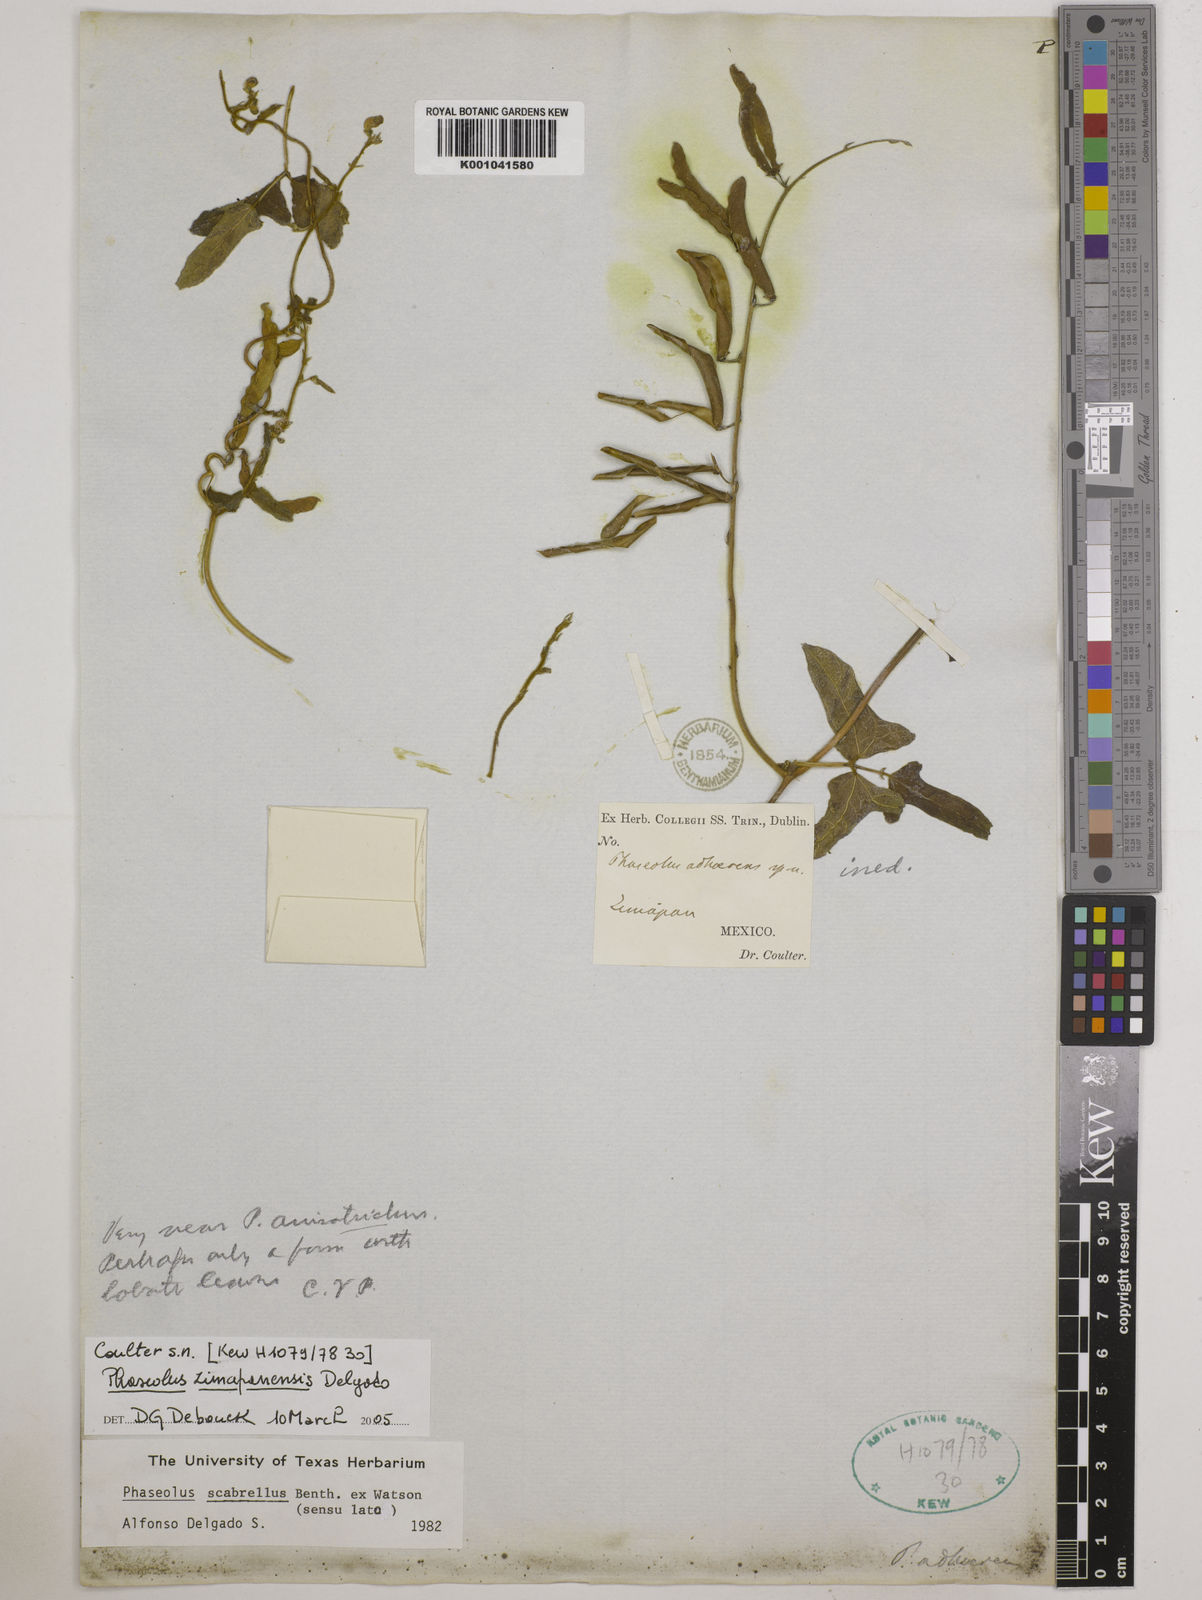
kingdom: Plantae
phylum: Tracheophyta
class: Magnoliopsida
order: Fabales
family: Fabaceae
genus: Phaseolus
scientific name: Phaseolus zimapanensis
